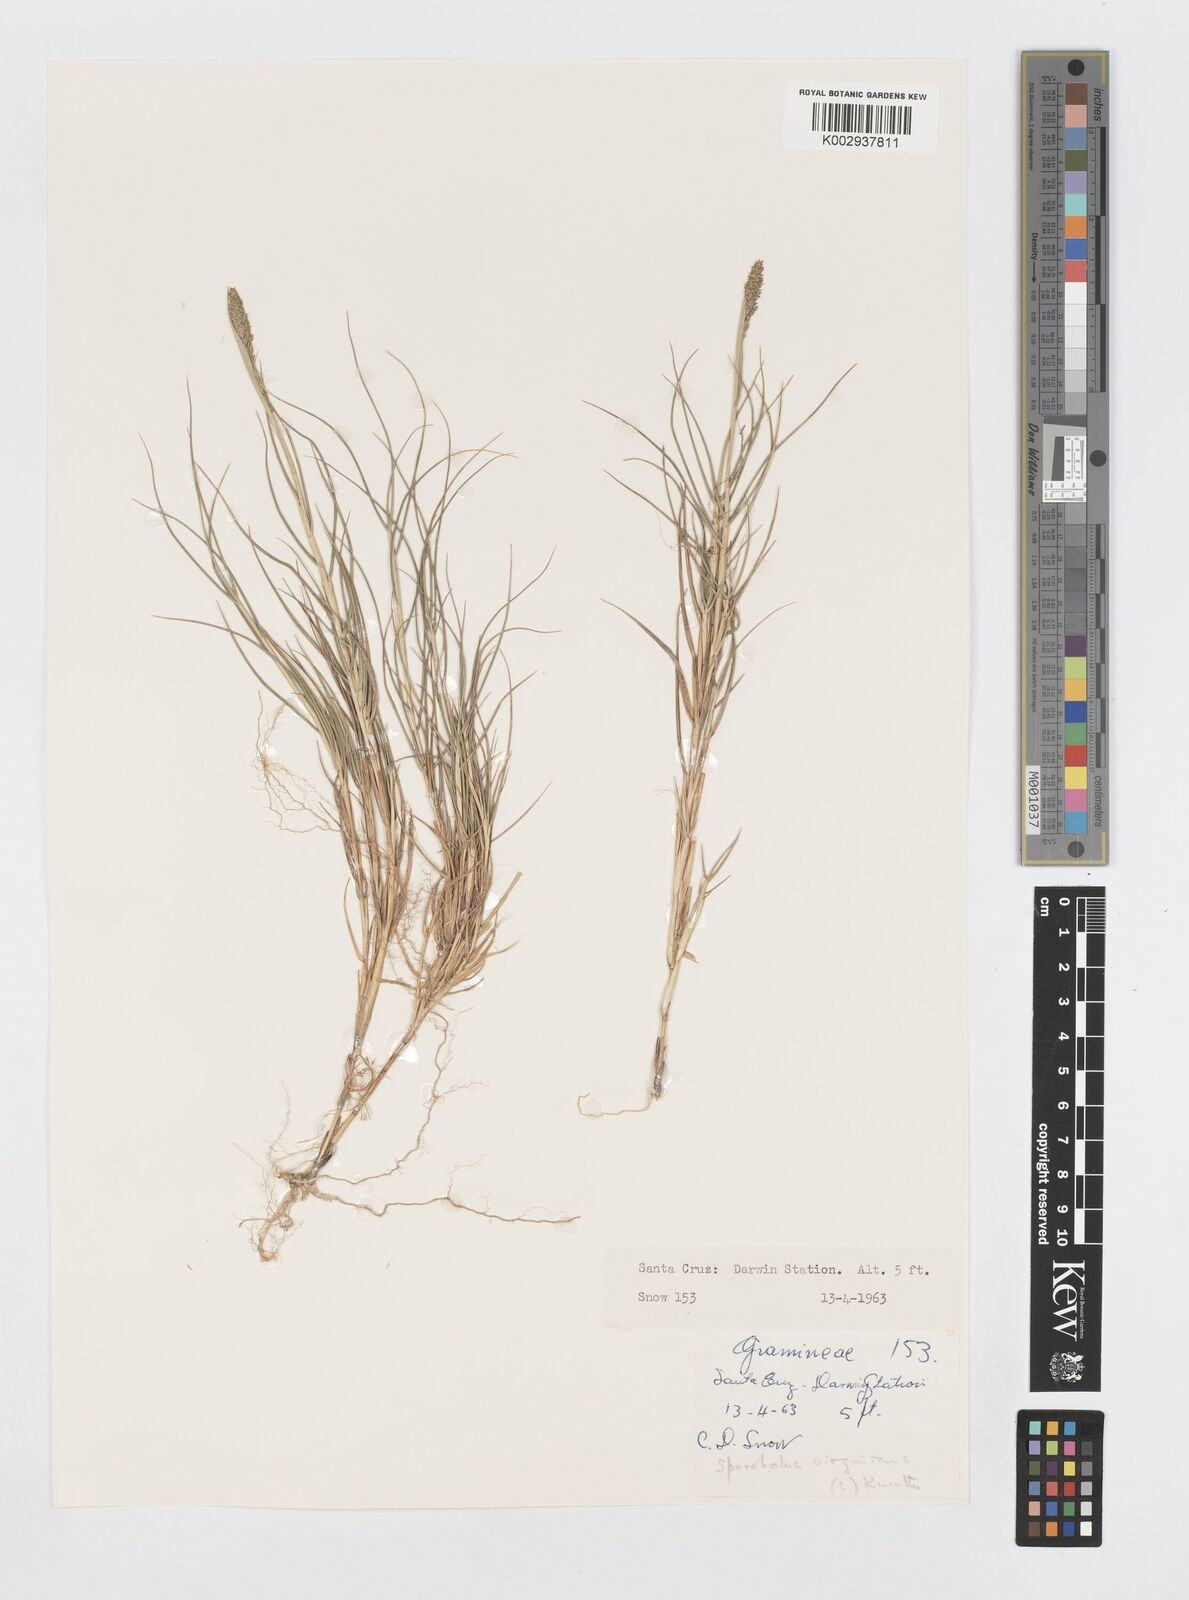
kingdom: Plantae
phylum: Tracheophyta
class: Liliopsida
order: Poales
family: Poaceae
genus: Sporobolus
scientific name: Sporobolus virginicus
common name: Beach dropseed
